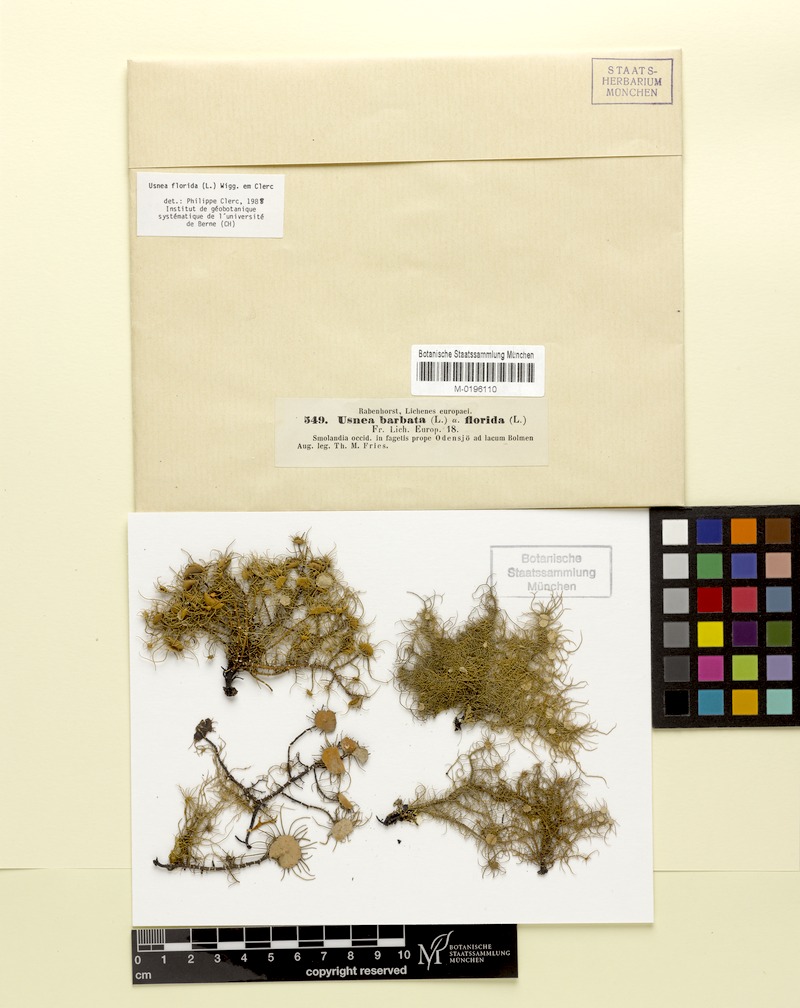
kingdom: Fungi
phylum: Ascomycota
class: Lecanoromycetes
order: Lecanorales
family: Parmeliaceae
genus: Usnea
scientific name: Usnea florida
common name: Witches' whiskers lichen
